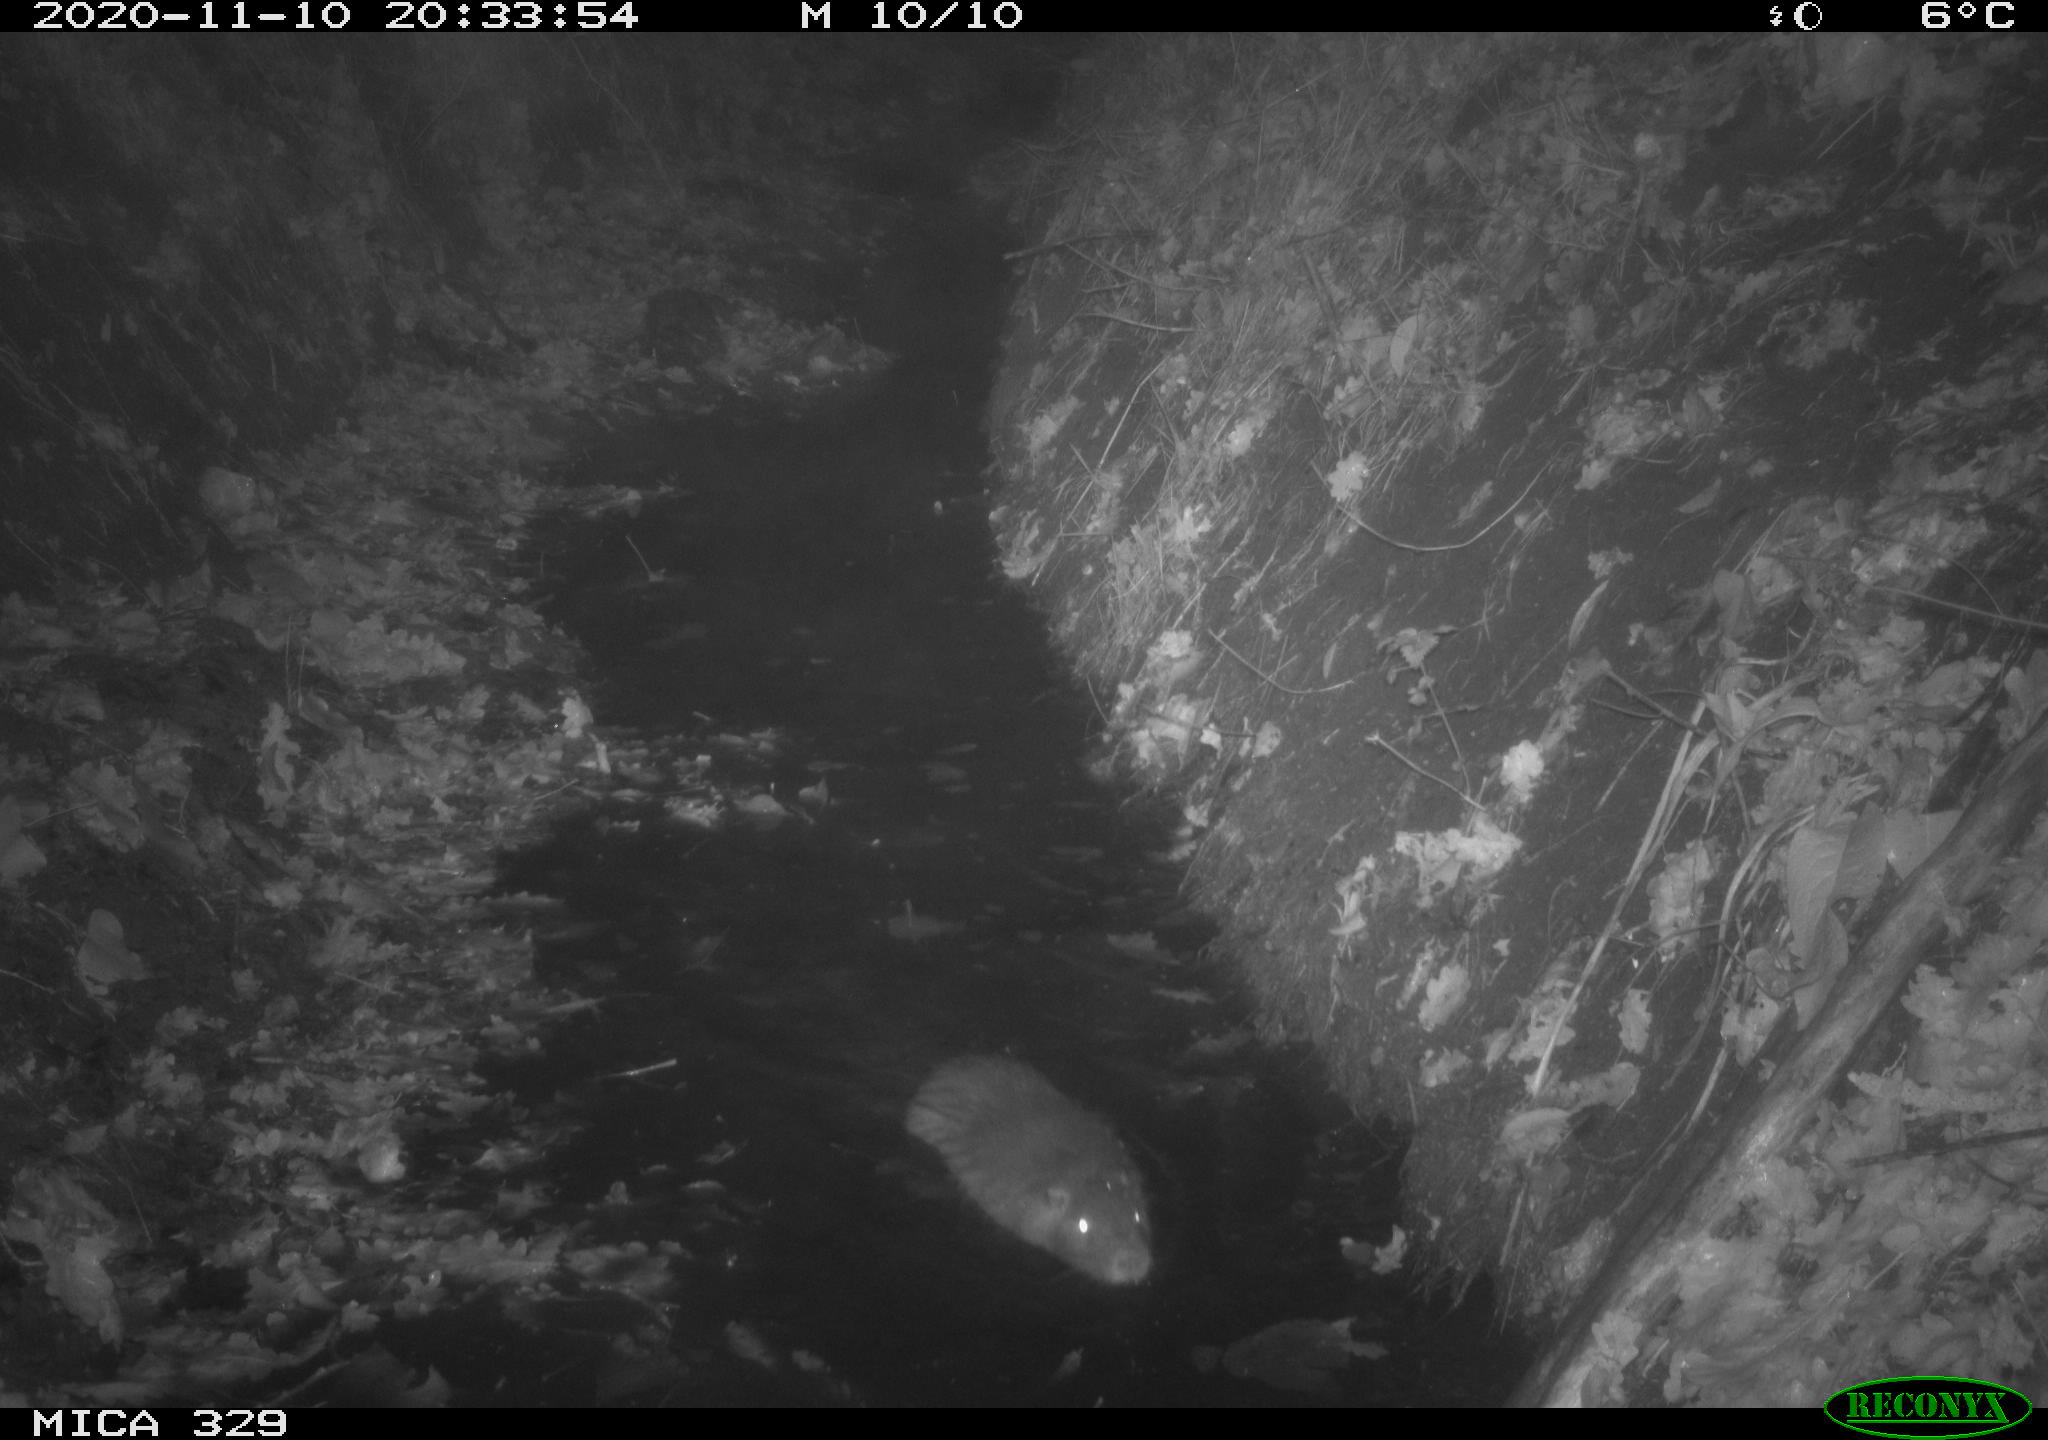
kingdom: Animalia
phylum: Chordata
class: Mammalia
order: Rodentia
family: Myocastoridae
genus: Myocastor
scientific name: Myocastor coypus
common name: Coypu
